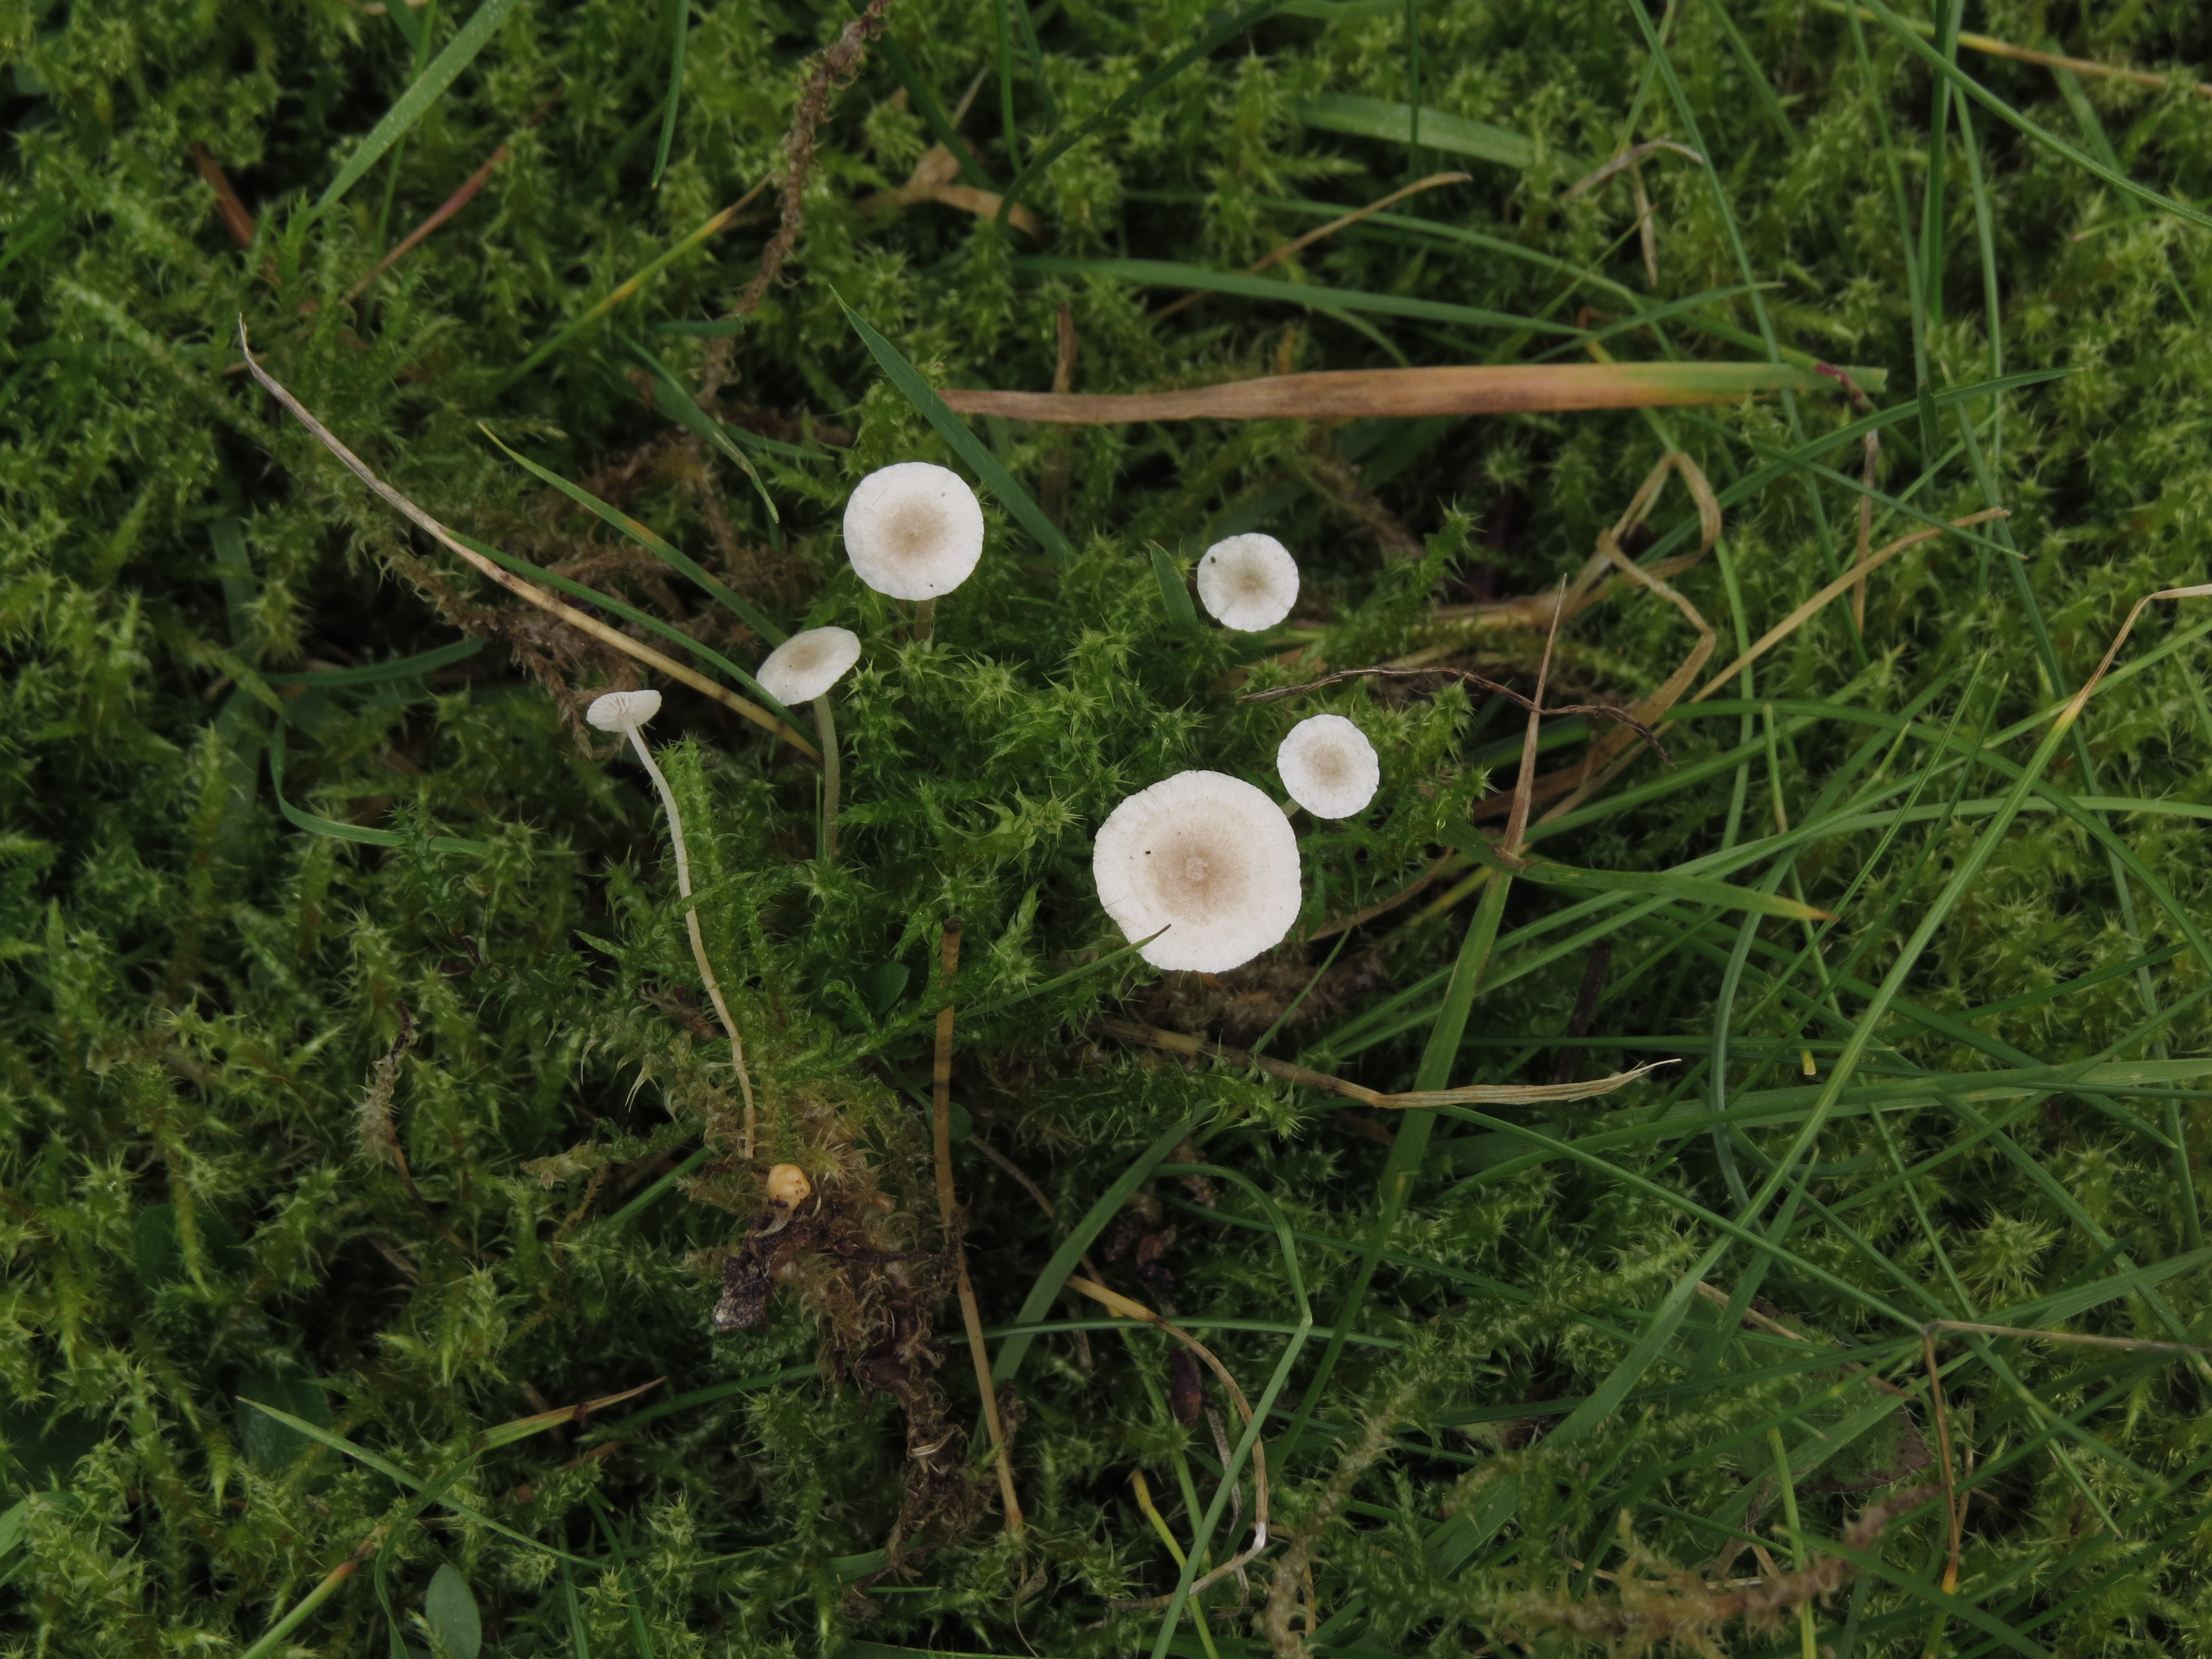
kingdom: Fungi
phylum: Basidiomycota
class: Agaricomycetes
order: Agaricales
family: Tricholomataceae
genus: Collybia
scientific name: Collybia cookei
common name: Splitpea shanklet
